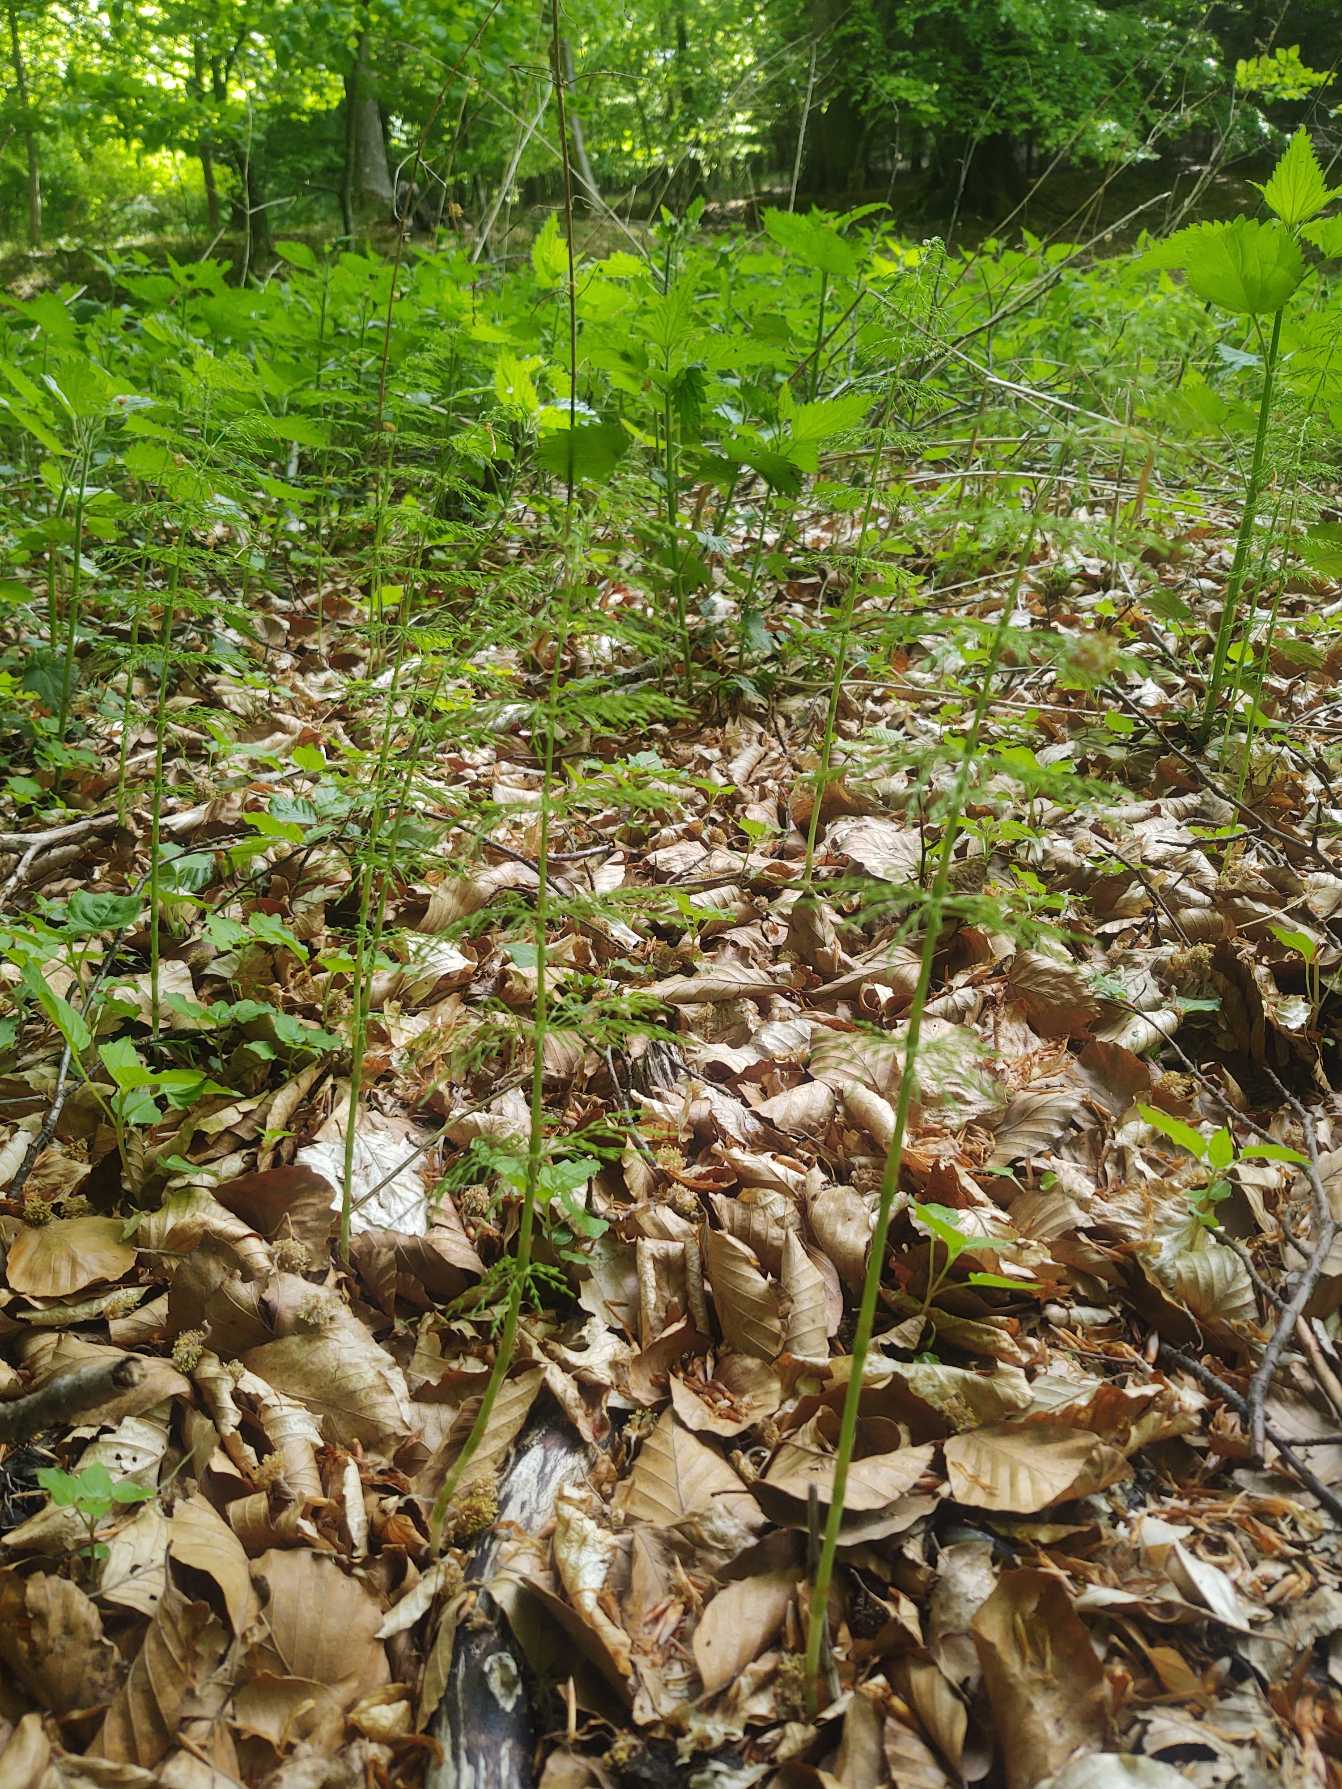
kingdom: Plantae
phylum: Tracheophyta
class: Polypodiopsida
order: Equisetales
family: Equisetaceae
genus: Equisetum
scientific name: Equisetum sylvaticum
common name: Skov-padderok
